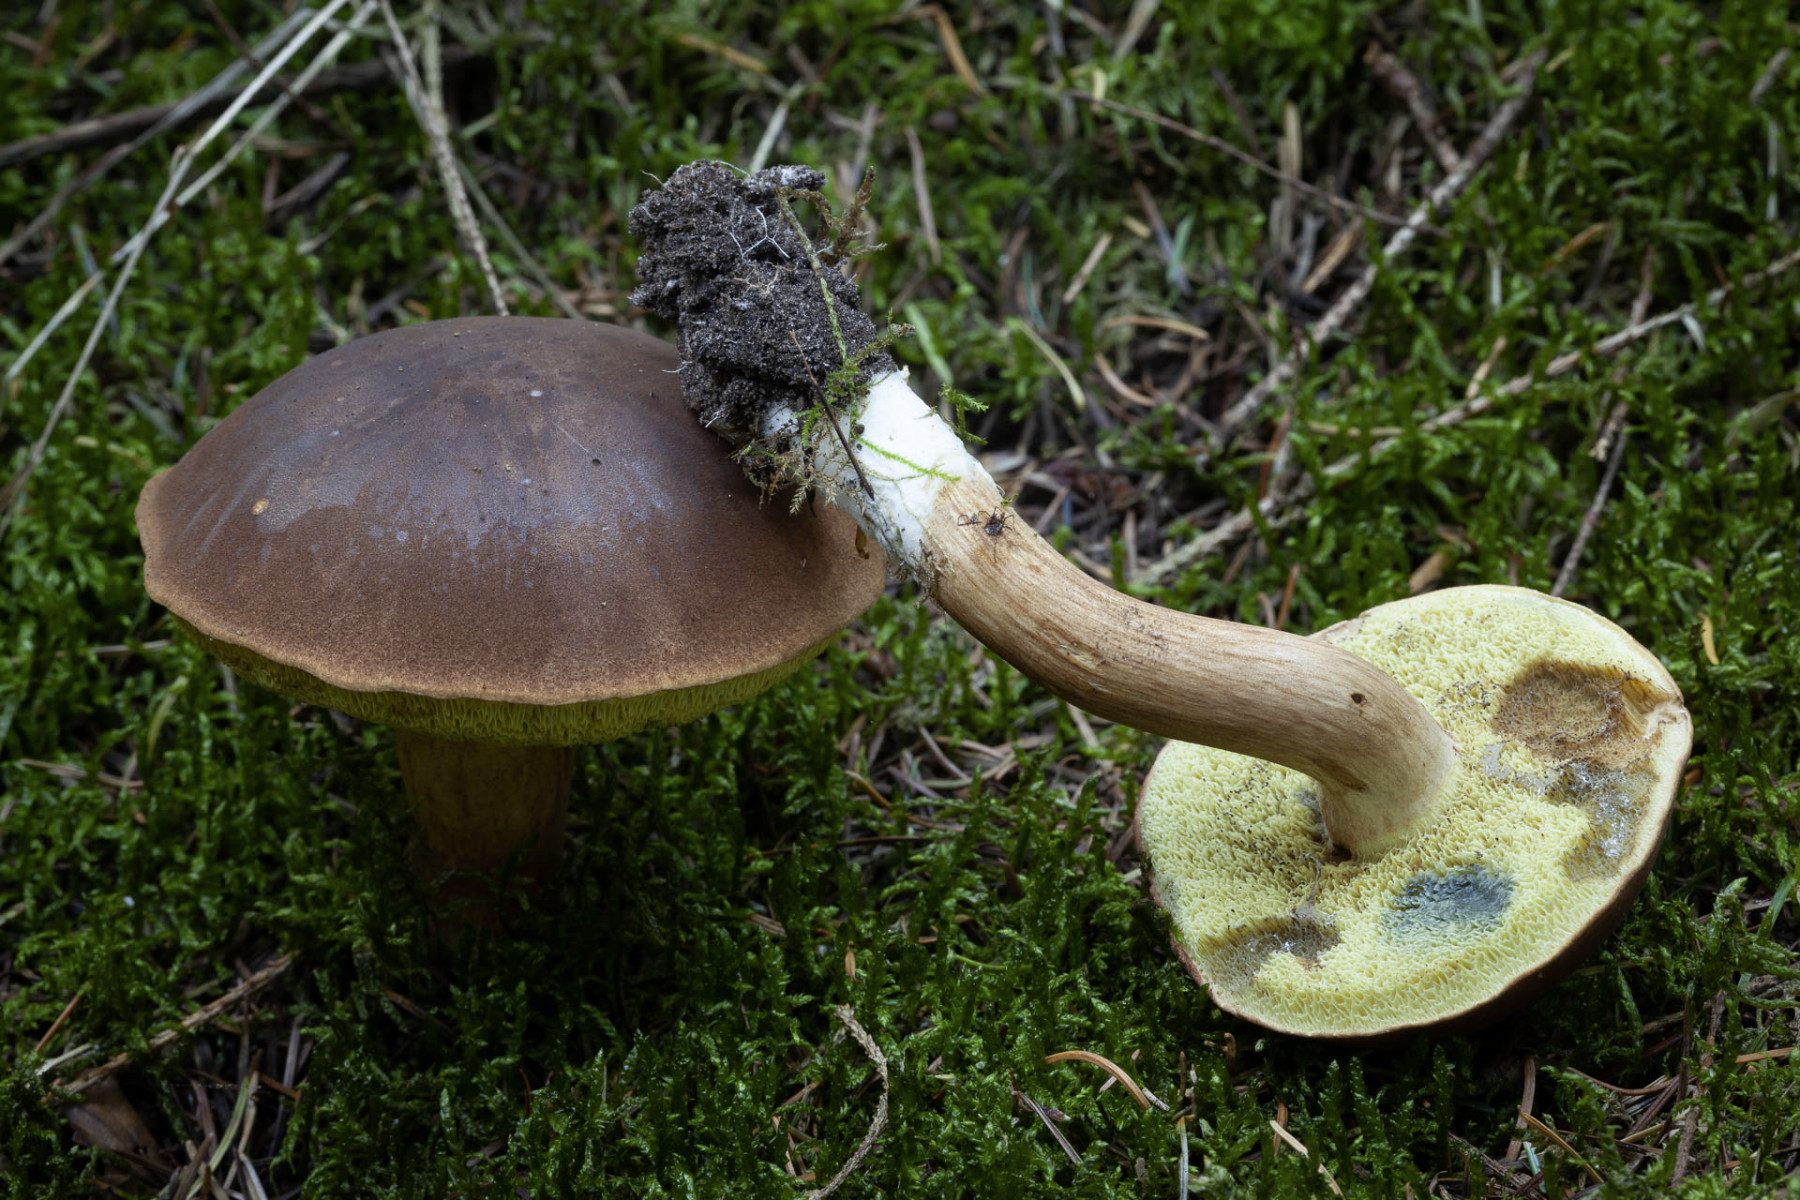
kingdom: Fungi
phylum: Basidiomycota
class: Agaricomycetes
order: Boletales
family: Boletaceae
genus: Imleria
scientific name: Imleria badia
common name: brunstokket rørhat
